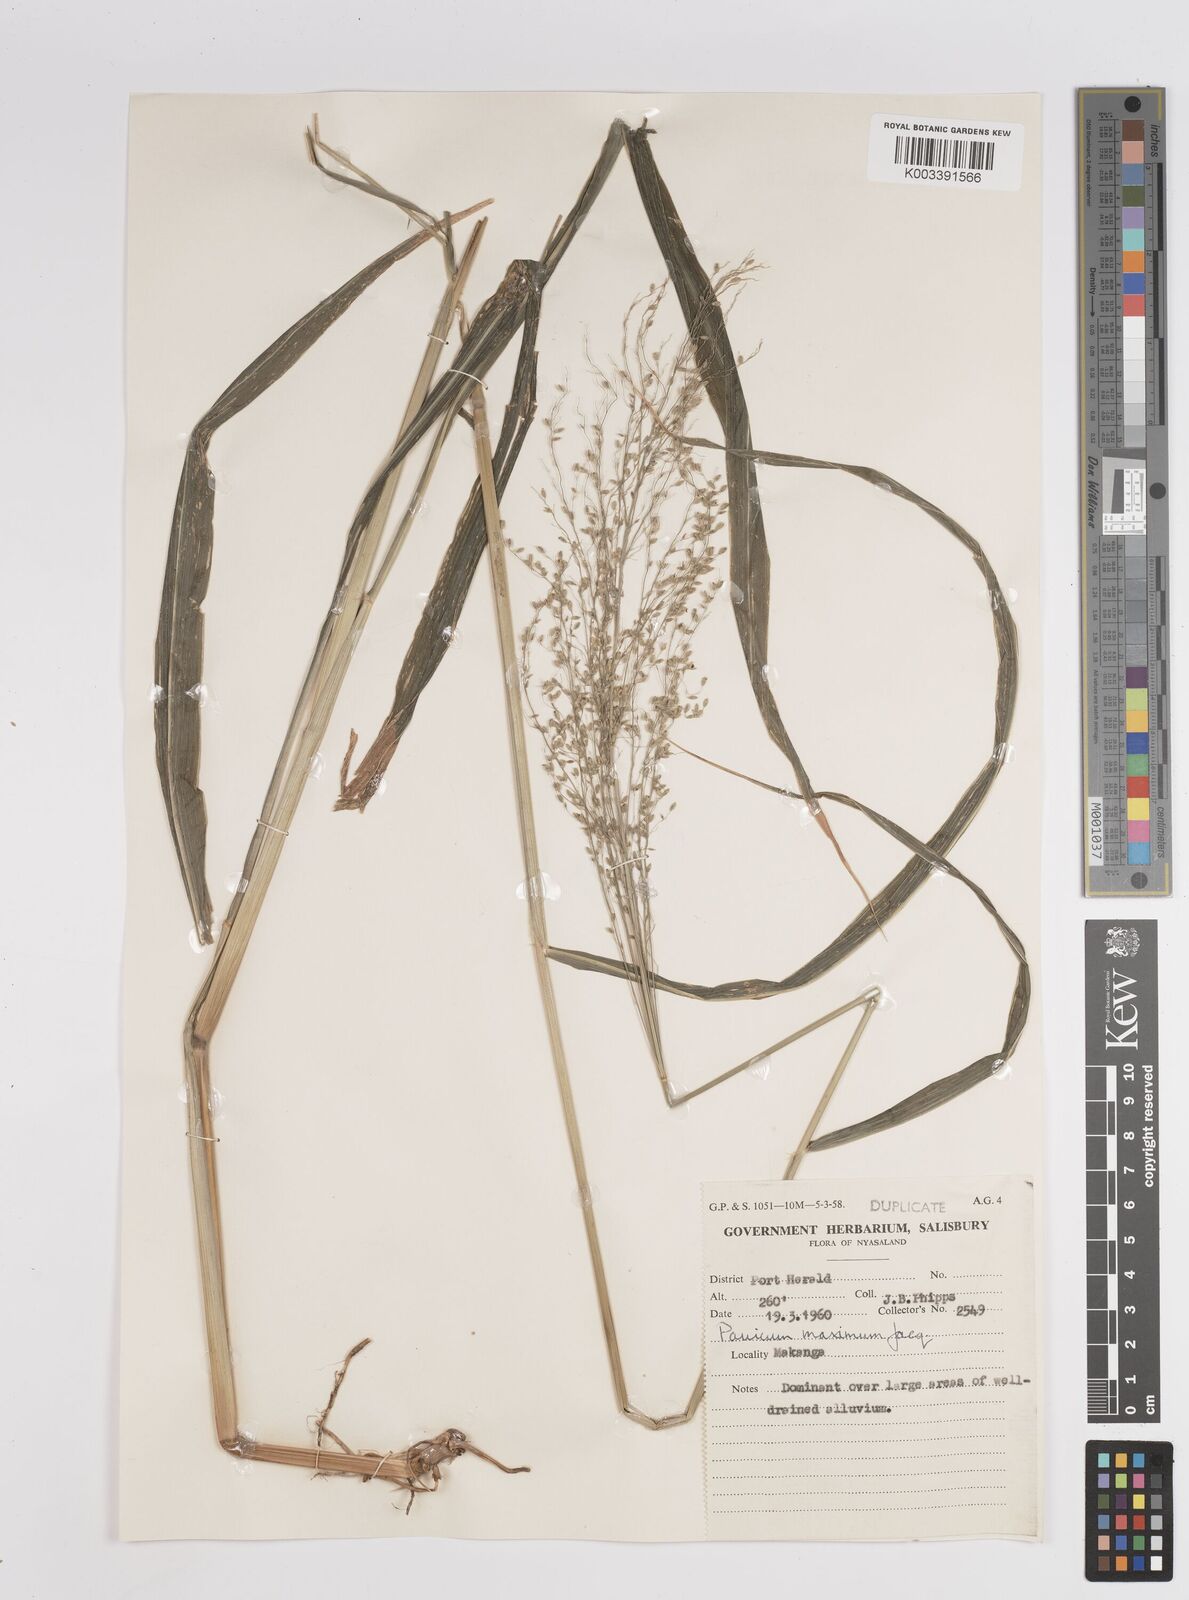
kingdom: Plantae
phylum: Tracheophyta
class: Liliopsida
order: Poales
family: Poaceae
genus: Megathyrsus
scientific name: Megathyrsus maximus
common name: Guineagrass
